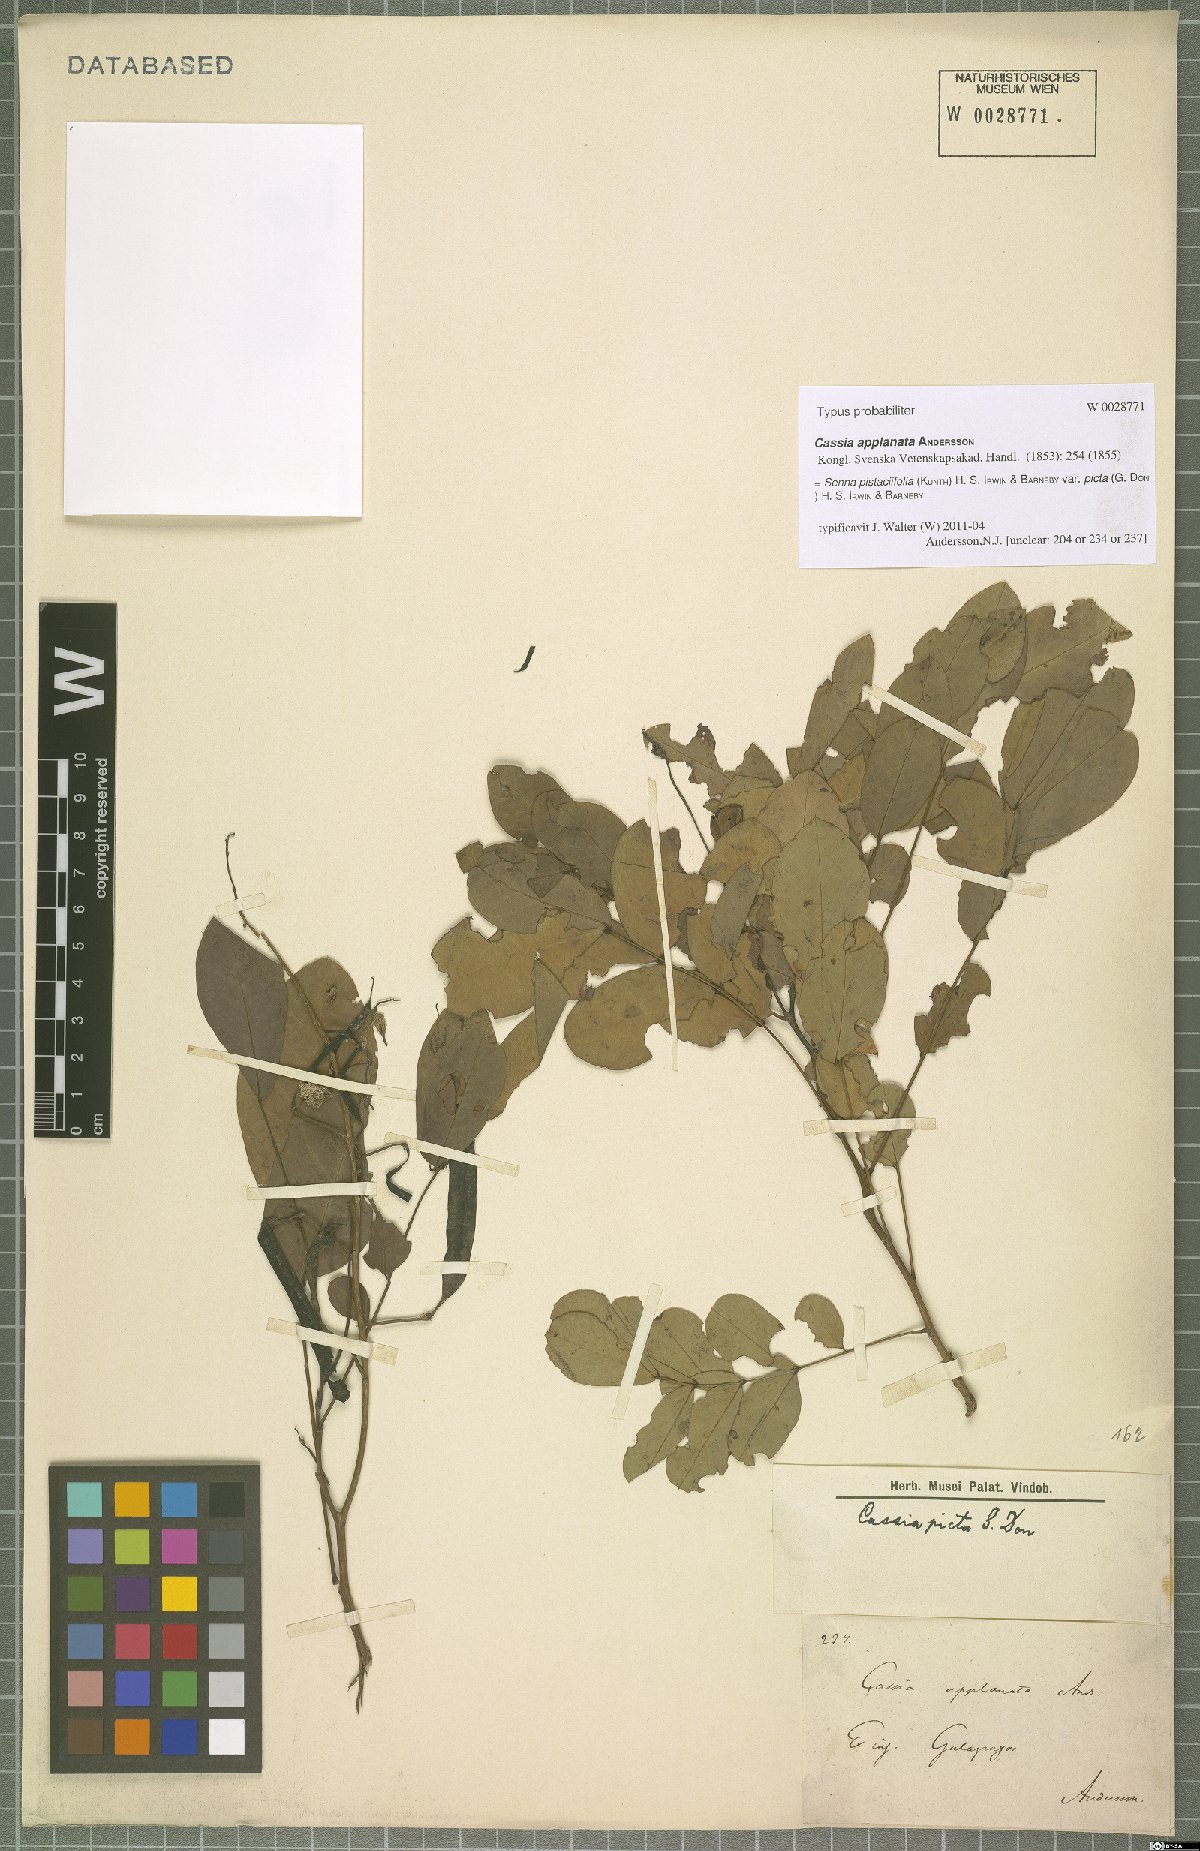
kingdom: Plantae
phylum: Tracheophyta
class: Magnoliopsida
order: Fabales
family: Fabaceae
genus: Senna
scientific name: Senna pistaciifolia
